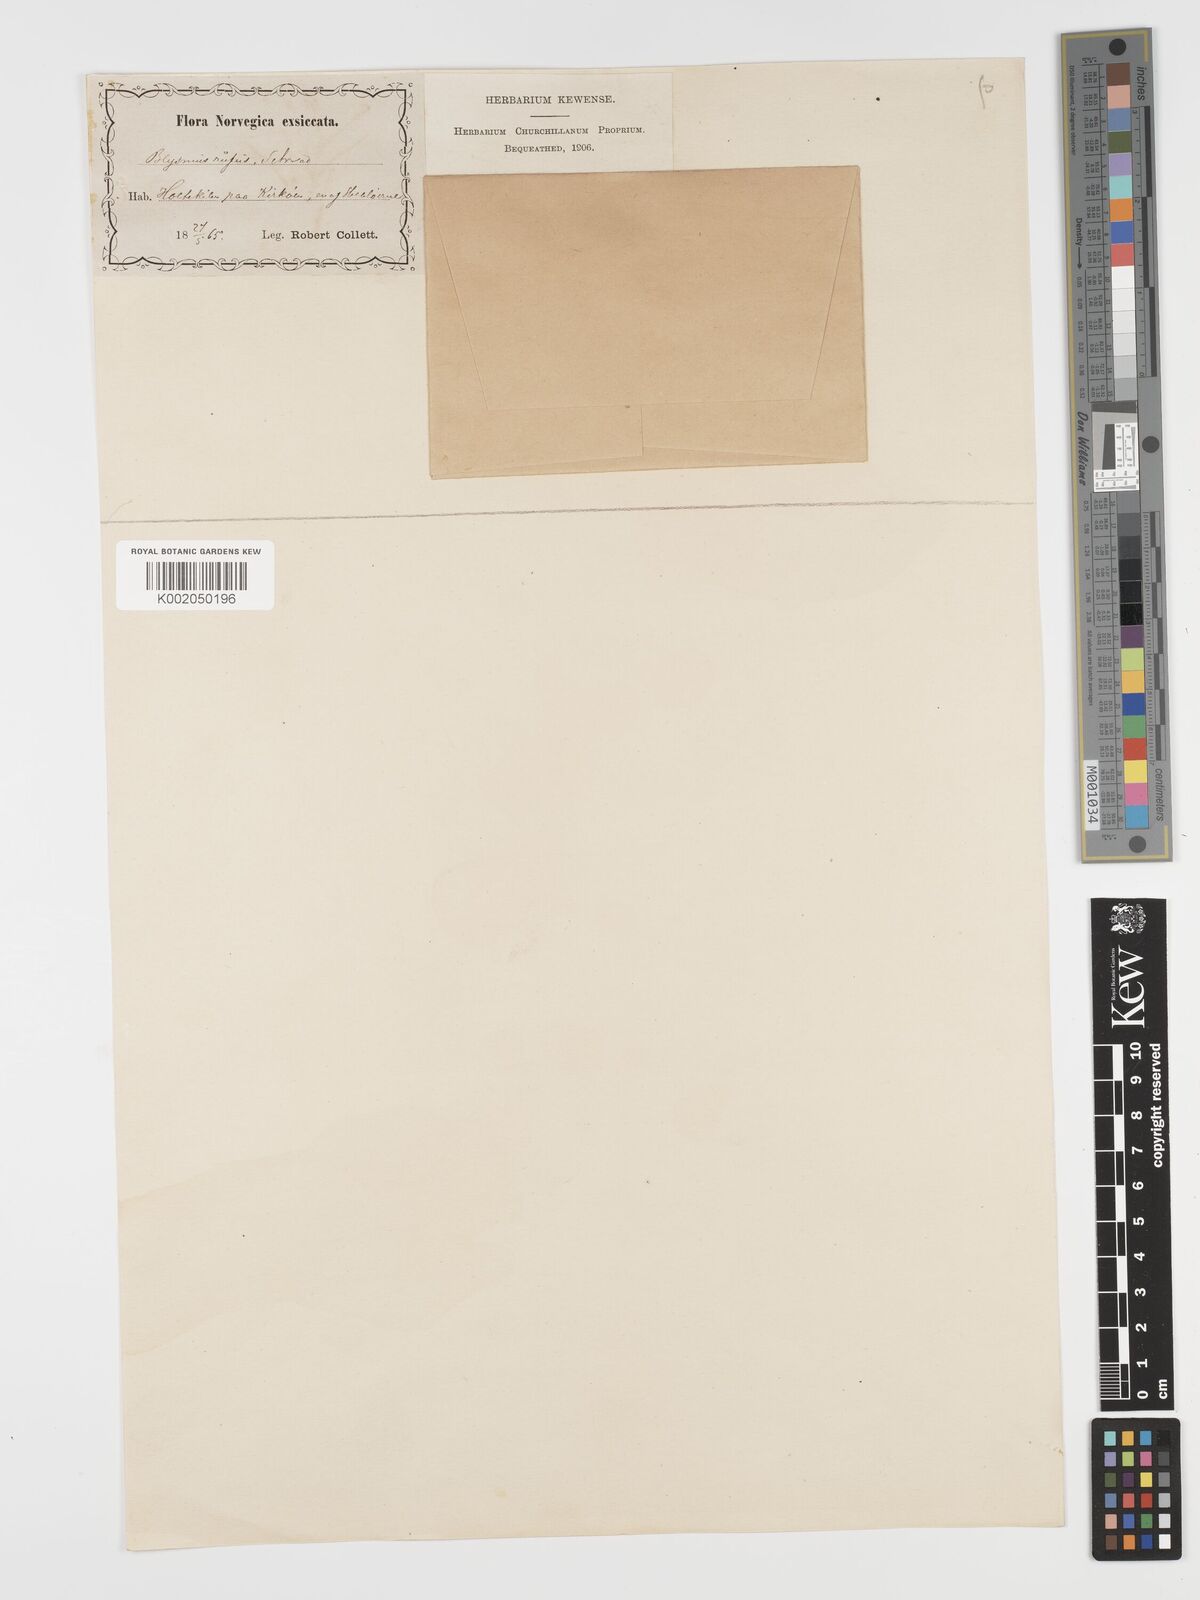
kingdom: Plantae
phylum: Tracheophyta
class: Liliopsida
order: Poales
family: Cyperaceae
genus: Blysmus
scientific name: Blysmus rufus
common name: Saltmarsh flat-sedge
